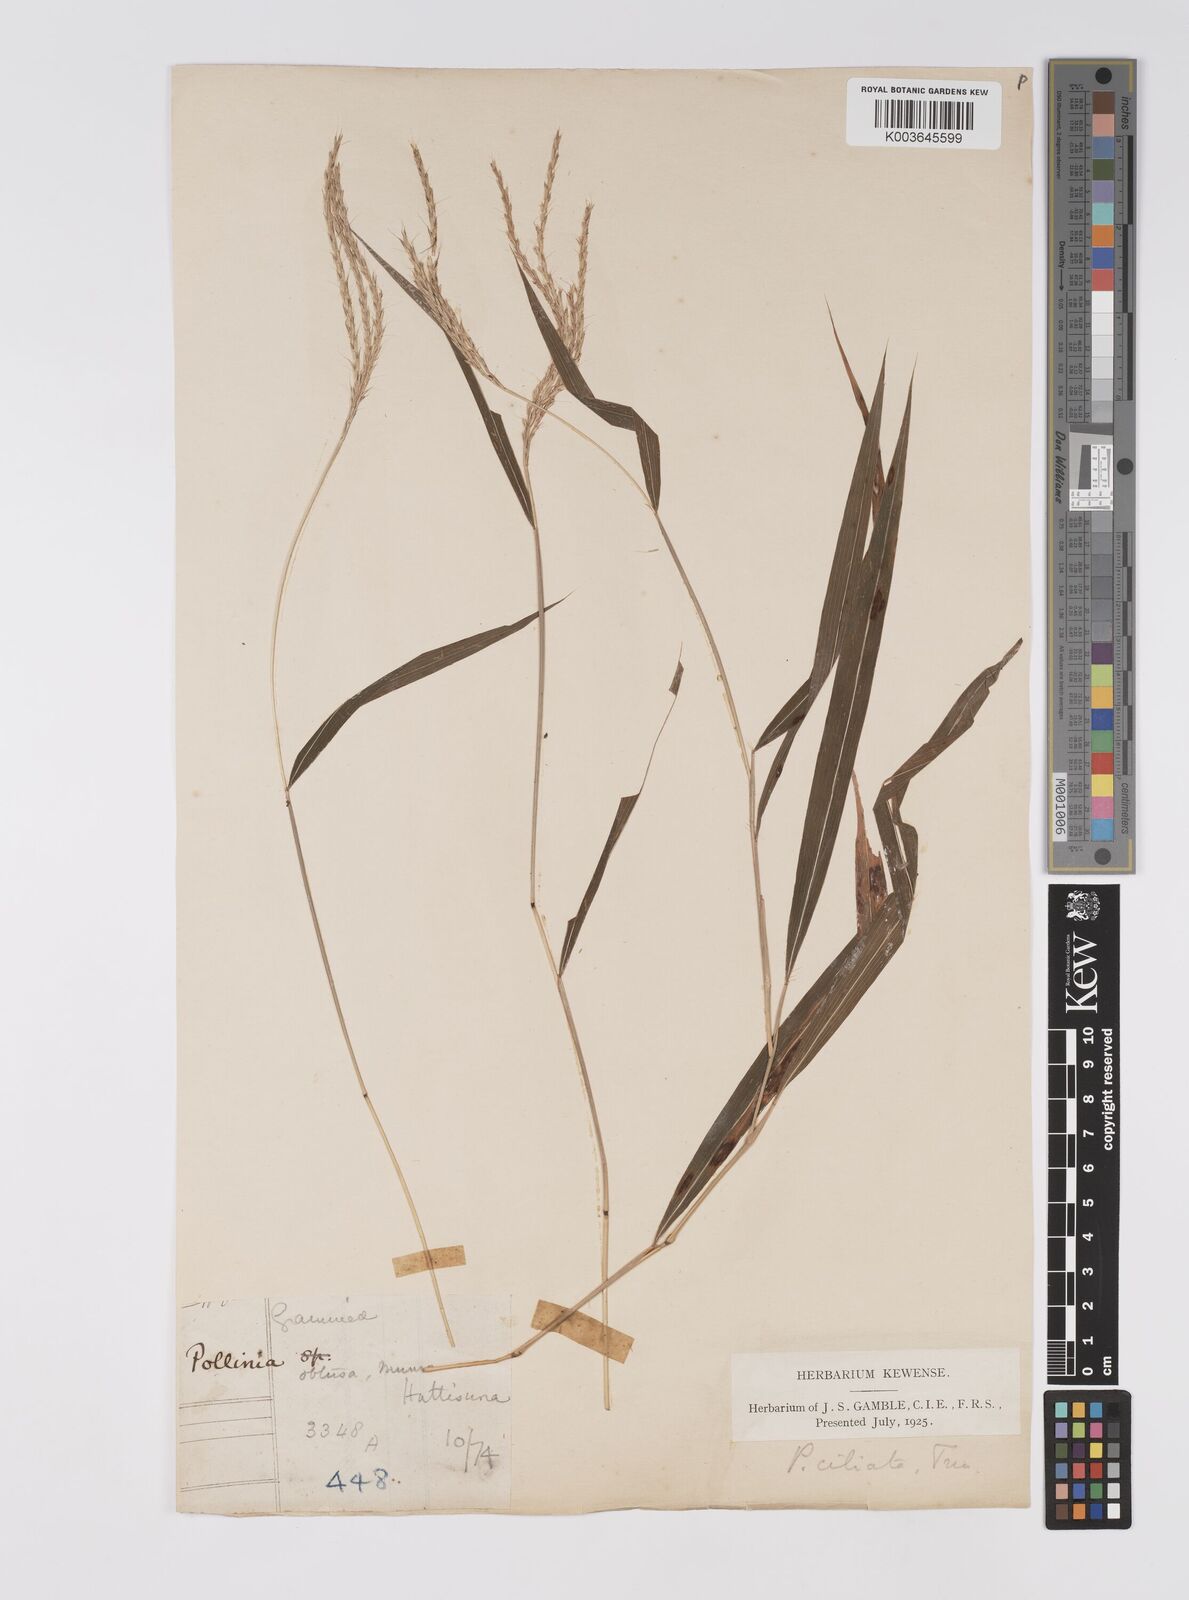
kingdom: Plantae
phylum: Tracheophyta
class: Liliopsida
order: Poales
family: Poaceae
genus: Microstegium
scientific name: Microstegium fasciculatum
